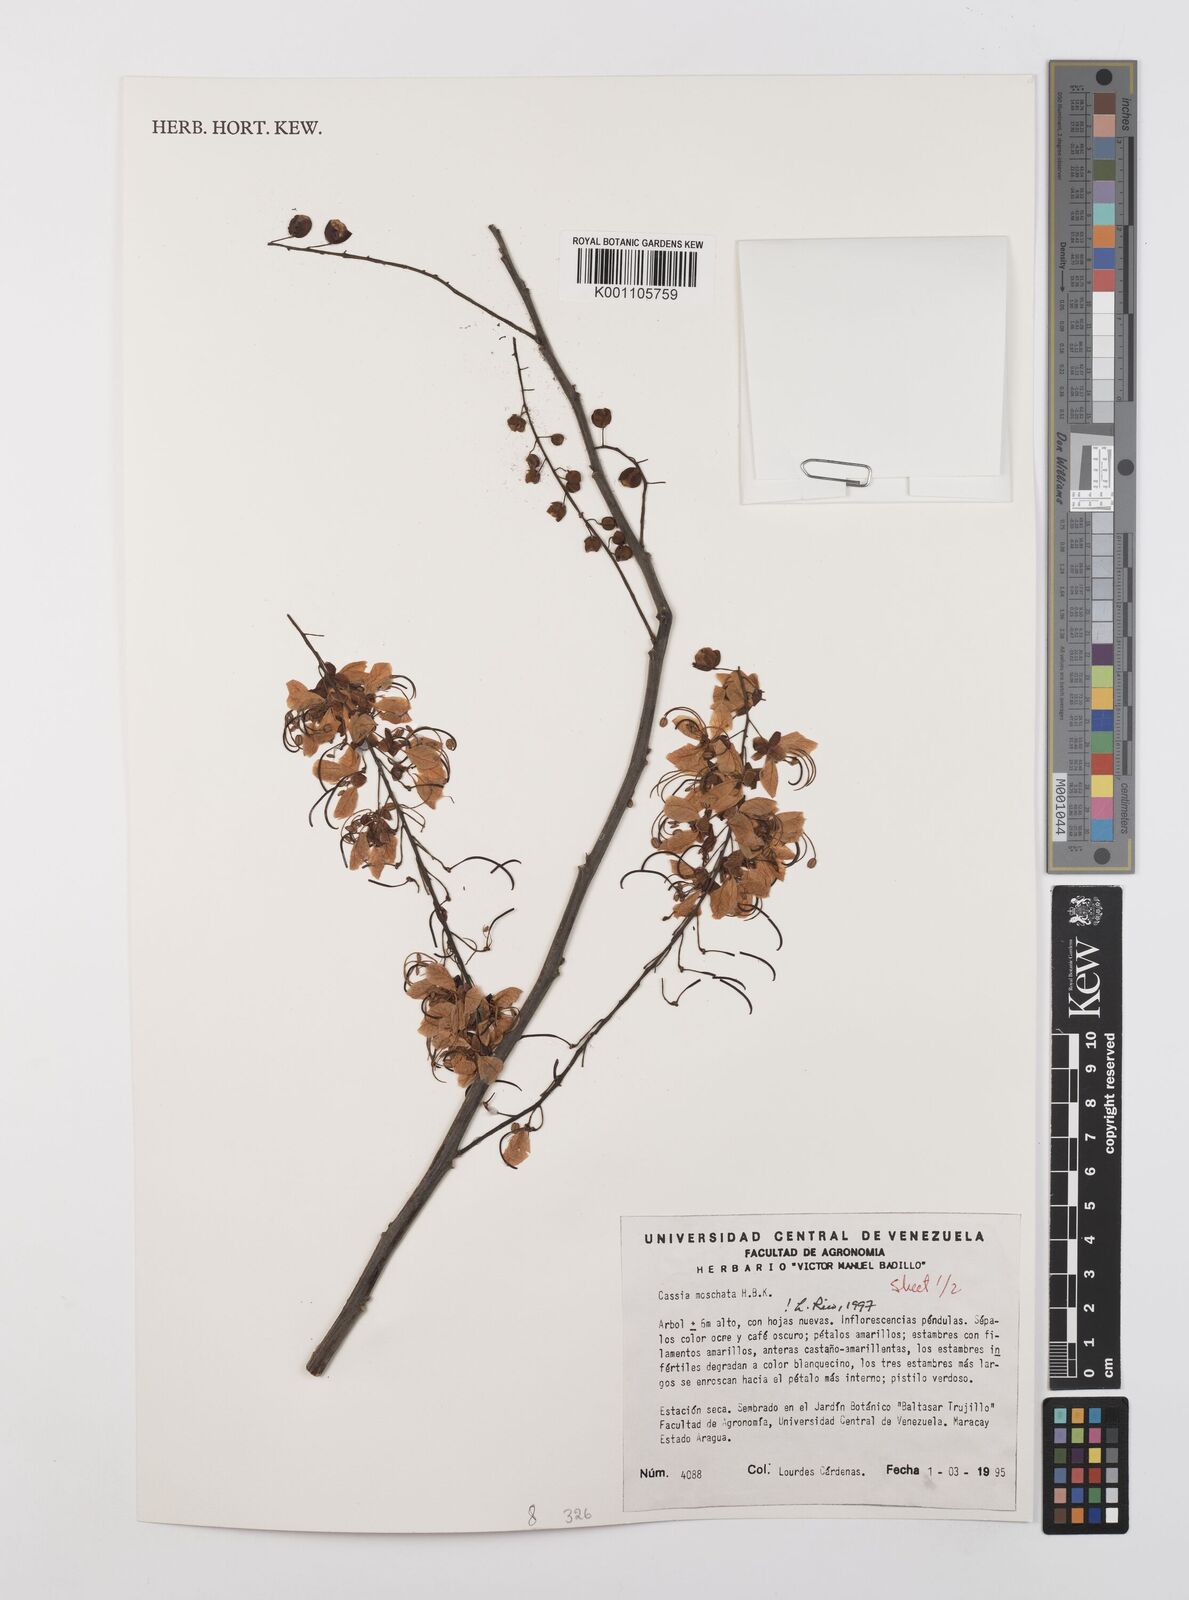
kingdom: Plantae
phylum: Tracheophyta
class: Magnoliopsida
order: Fabales
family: Fabaceae
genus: Cassia
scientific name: Cassia moschata
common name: Bronze shower tree
